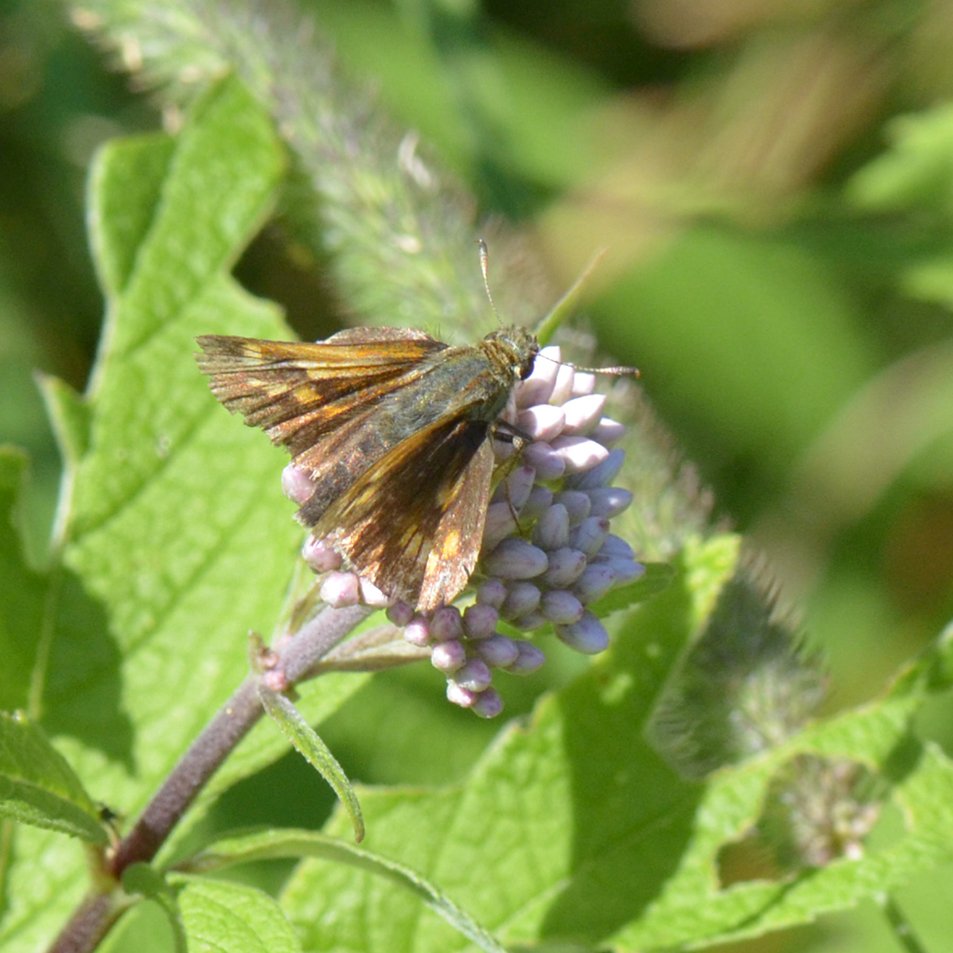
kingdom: Animalia
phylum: Arthropoda
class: Insecta
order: Lepidoptera
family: Hesperiidae
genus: Polites
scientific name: Polites
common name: Long Dash Skipper
